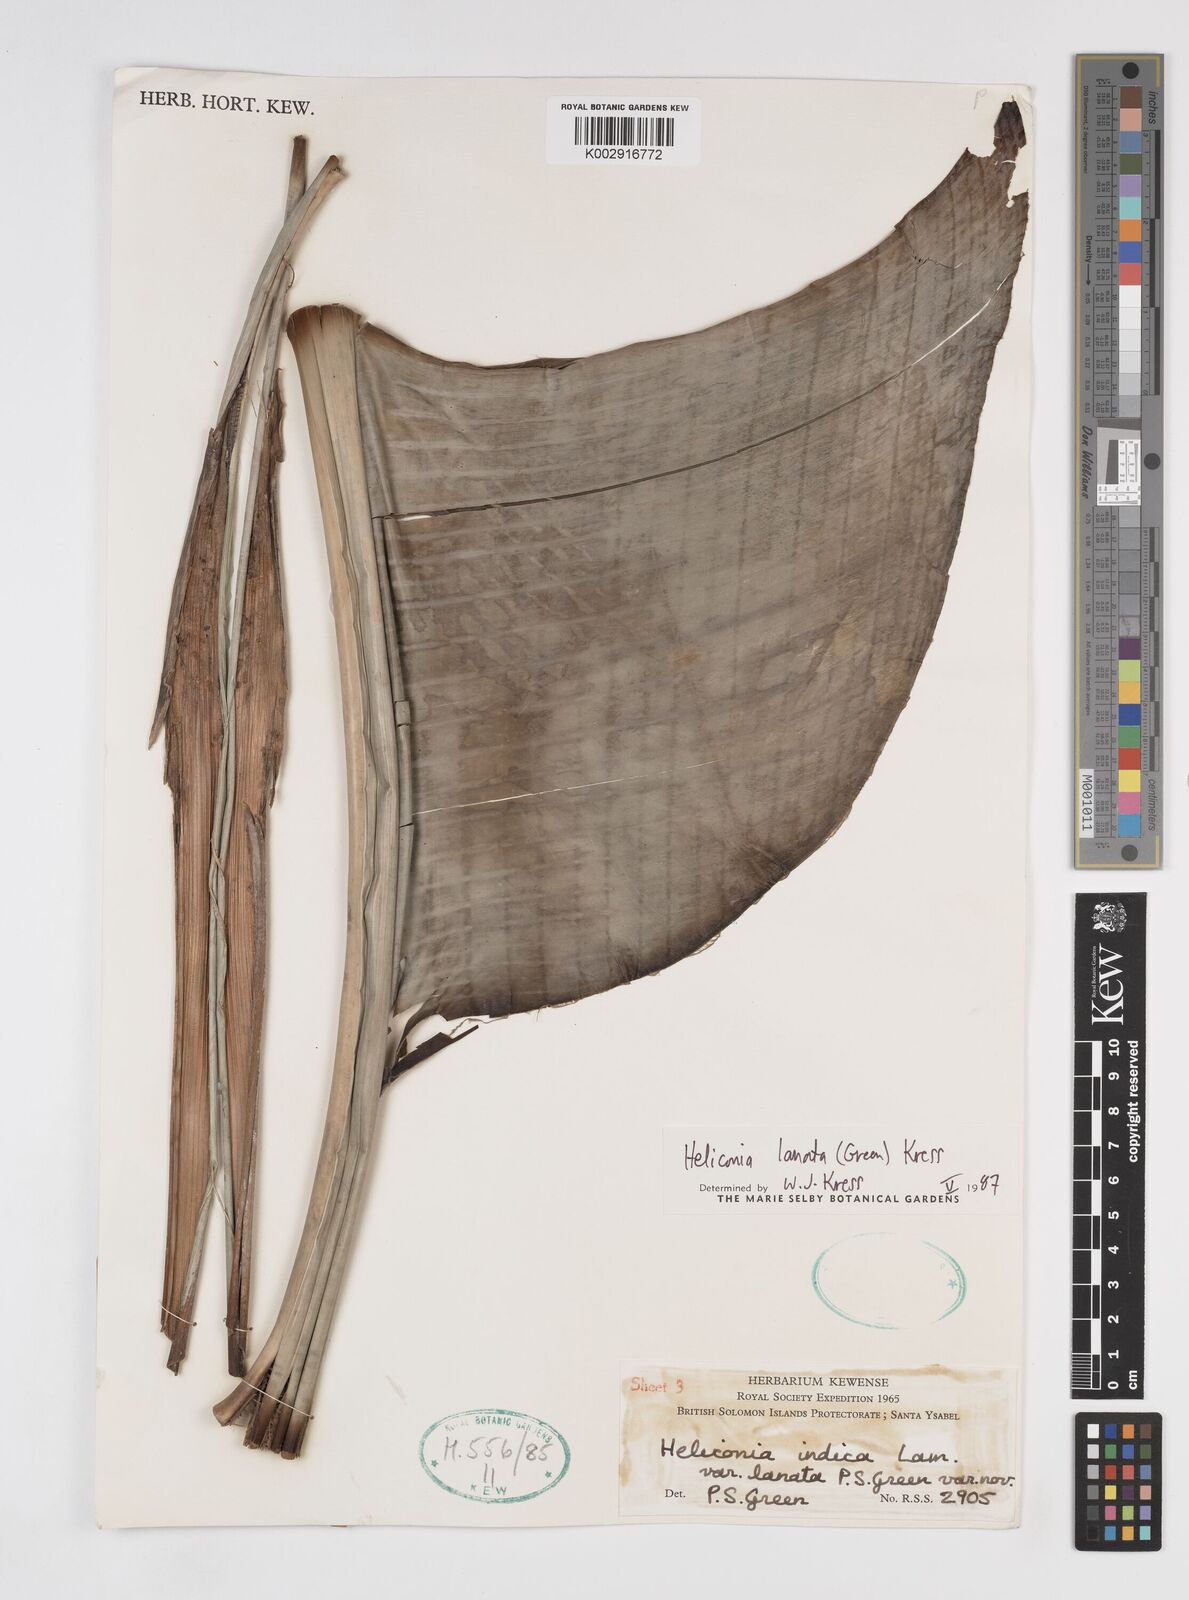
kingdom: Plantae
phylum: Tracheophyta
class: Liliopsida
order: Zingiberales
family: Heliconiaceae
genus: Heliconia
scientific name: Heliconia lanata
